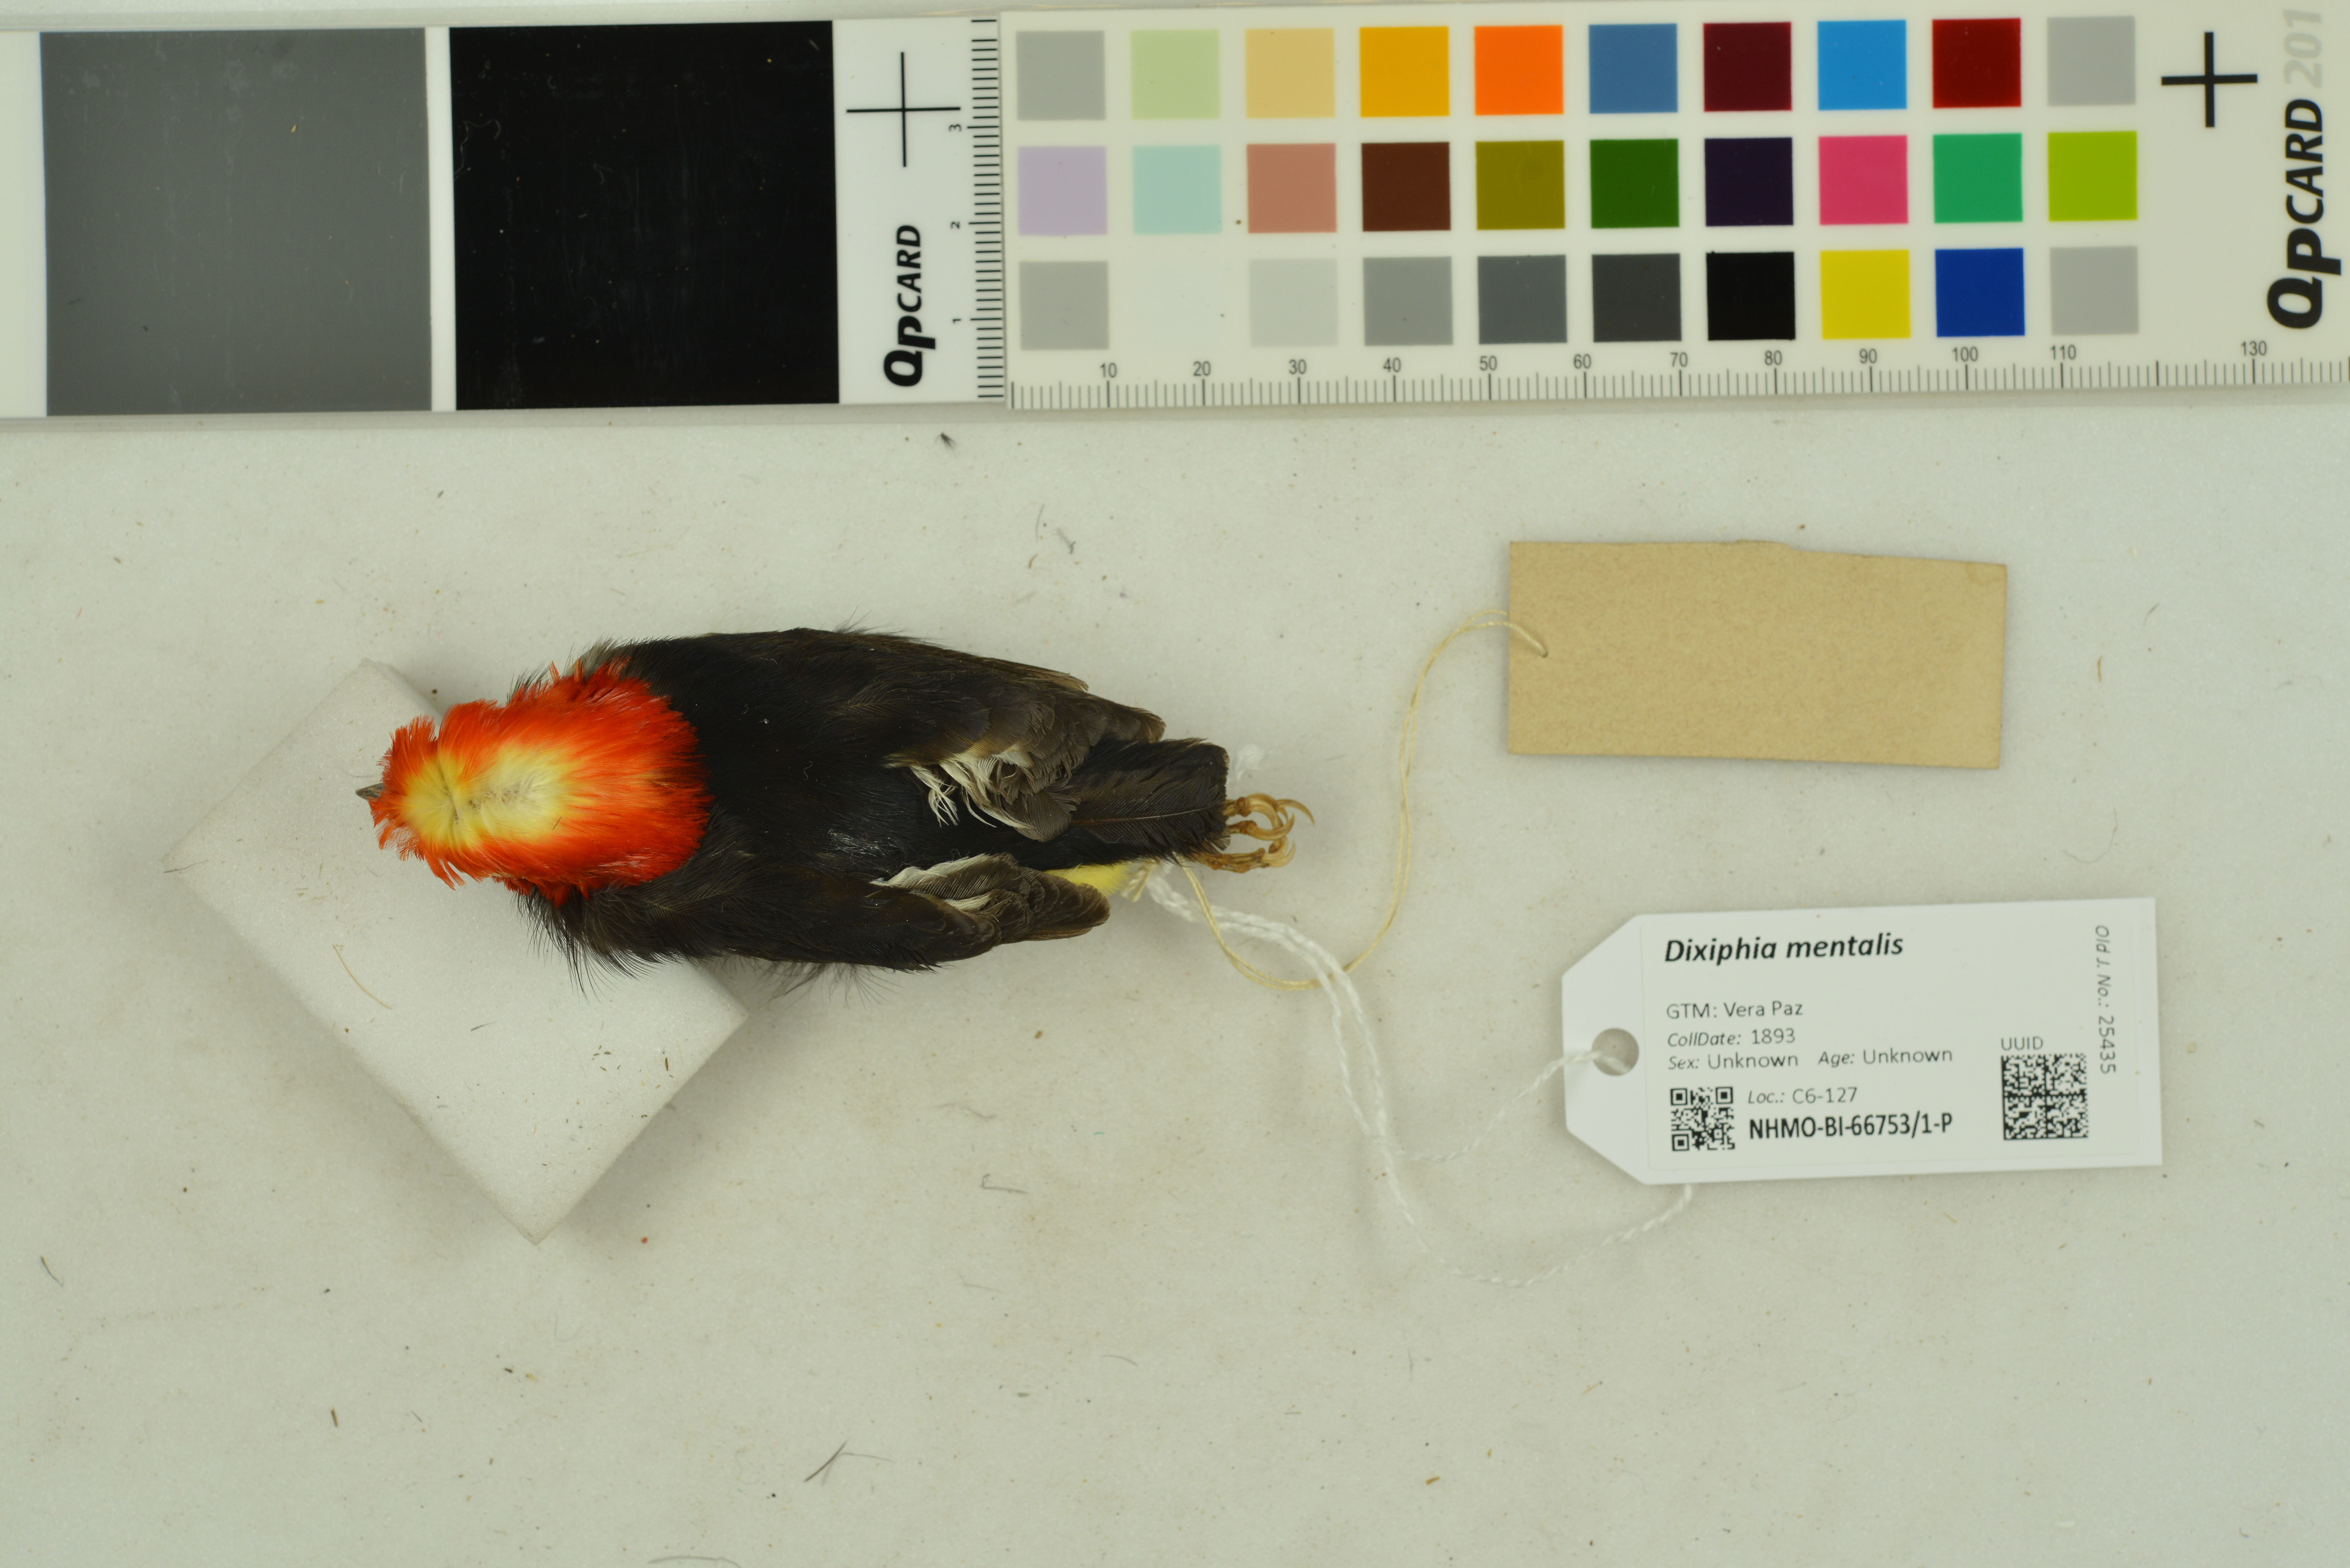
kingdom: Animalia
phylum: Chordata
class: Aves
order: Passeriformes
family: Pipridae
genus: Pipra
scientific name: Pipra mentalis
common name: Red-capped manakin
